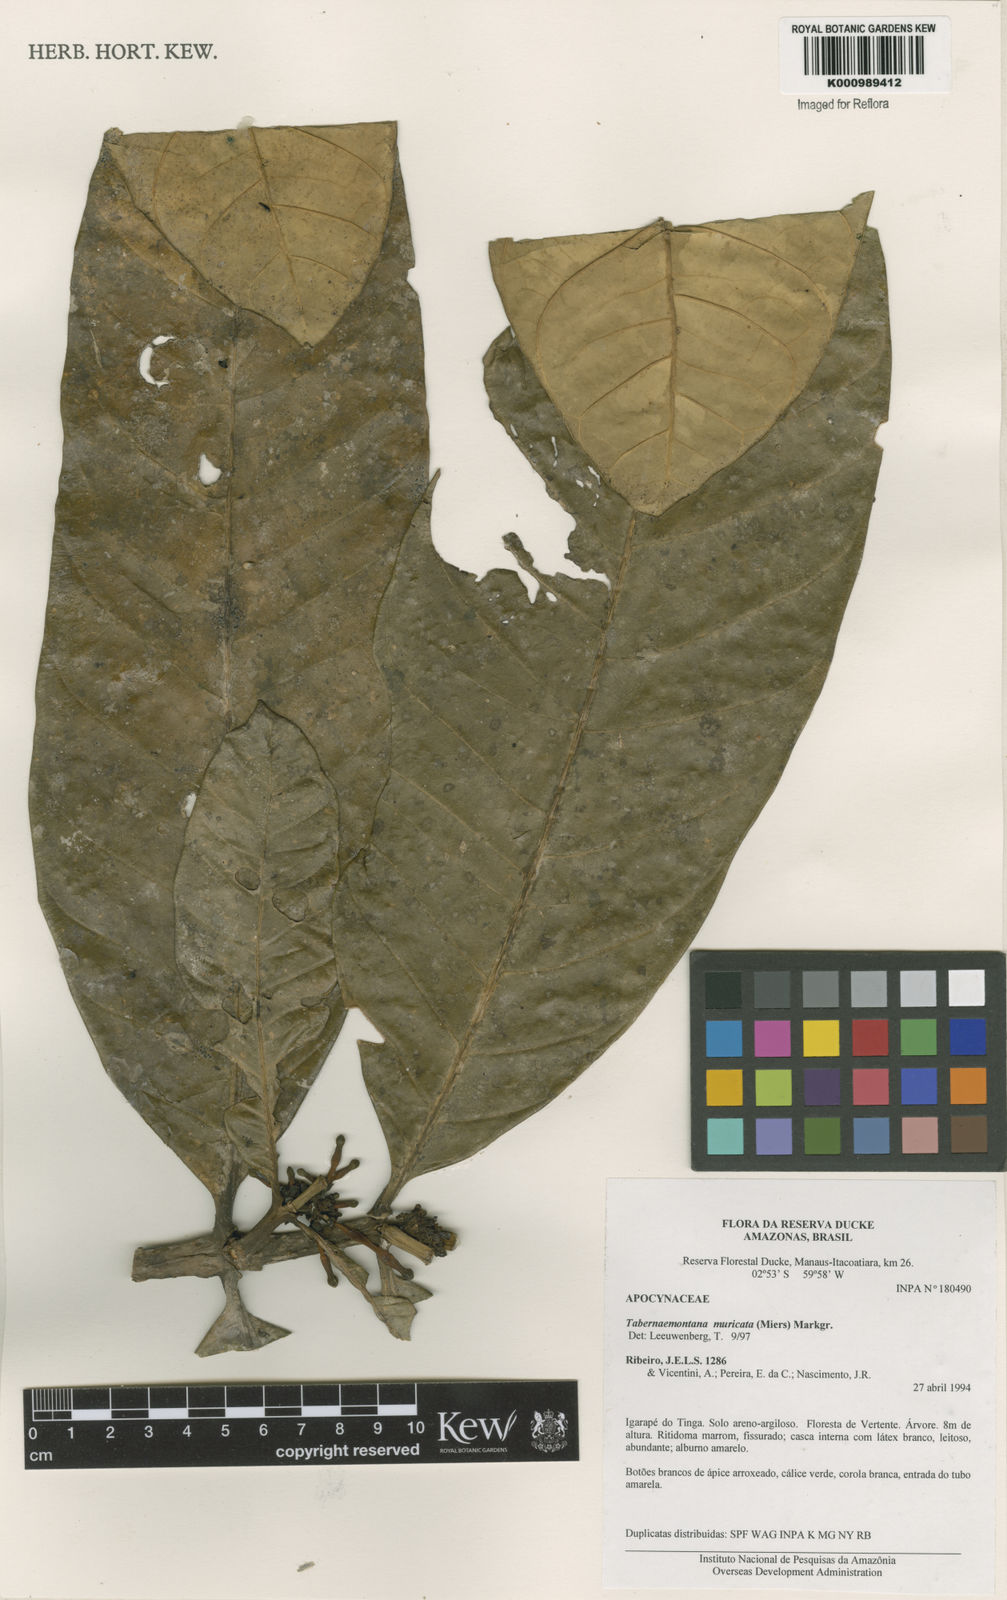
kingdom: Plantae
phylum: Tracheophyta
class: Magnoliopsida
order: Gentianales
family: Apocynaceae
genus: Tabernaemontana
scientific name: Tabernaemontana muricata
